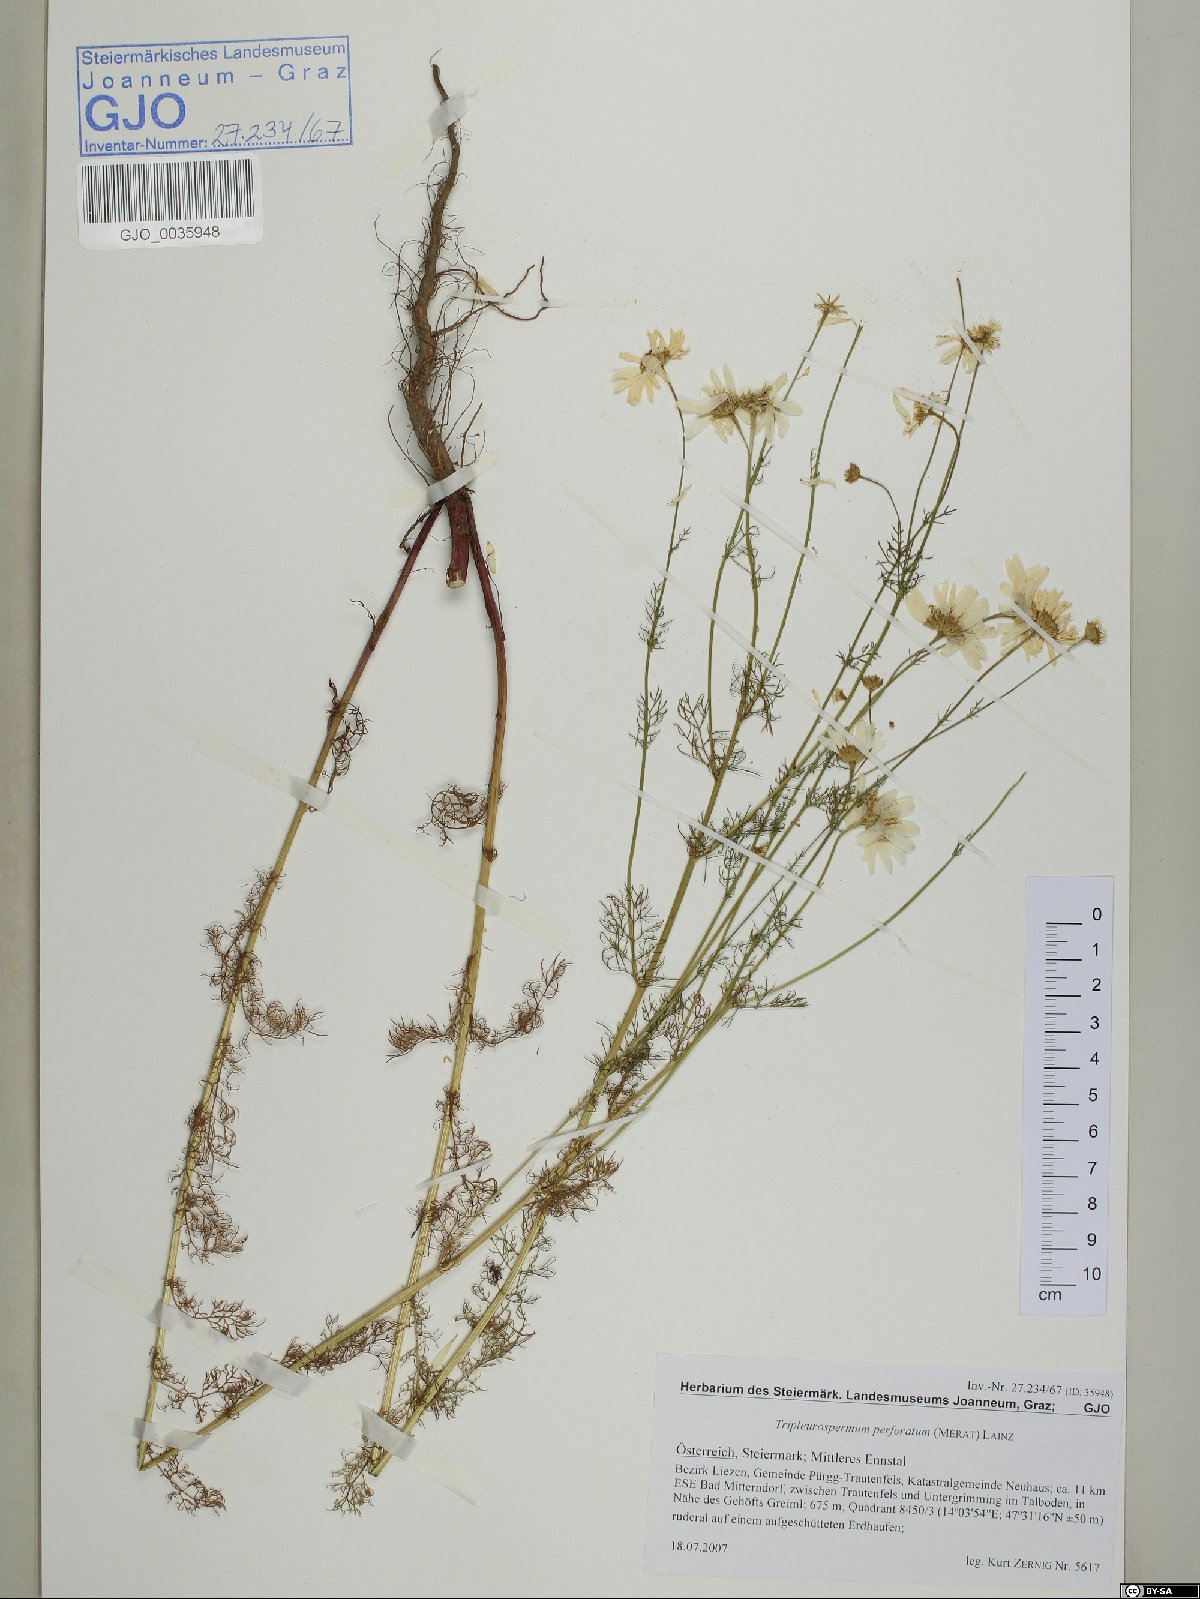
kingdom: Plantae
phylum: Tracheophyta
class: Magnoliopsida
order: Asterales
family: Asteraceae
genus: Tripleurospermum
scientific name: Tripleurospermum inodorum
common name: Scentless mayweed
